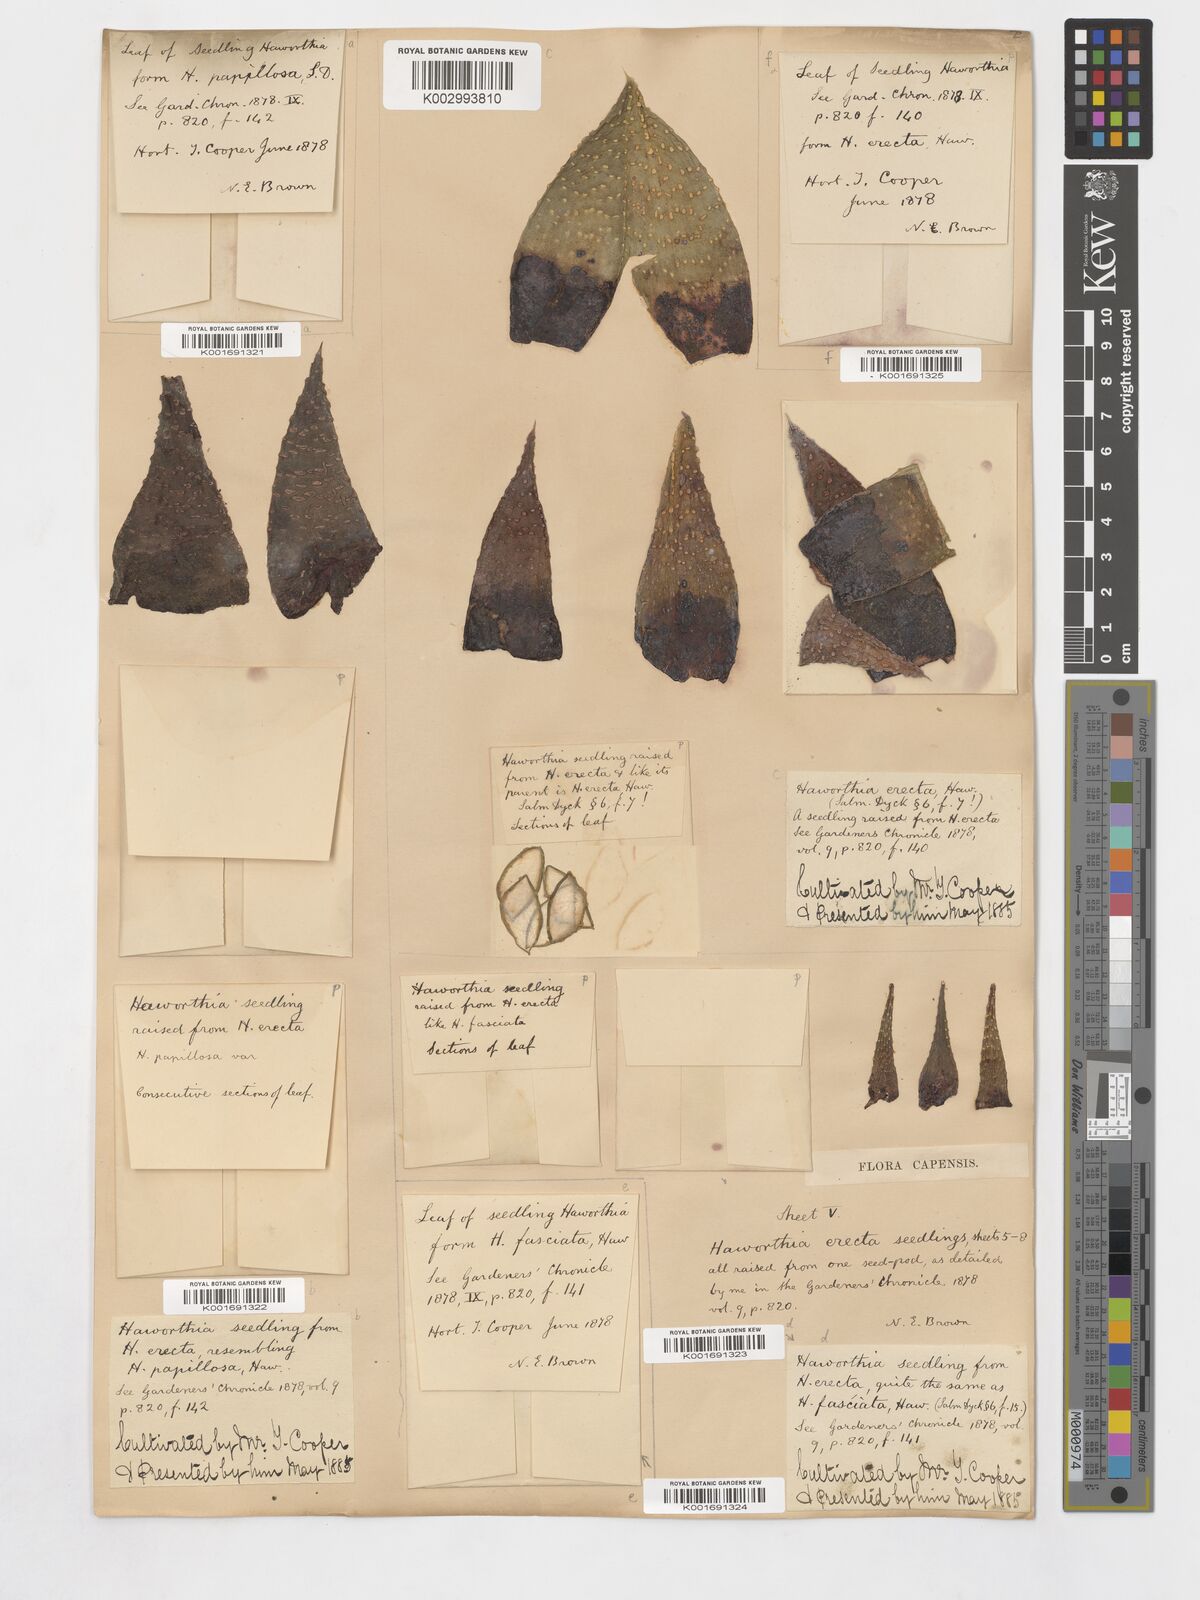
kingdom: Plantae
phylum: Tracheophyta
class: Liliopsida
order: Asparagales
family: Asphodelaceae
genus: Tulista
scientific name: Tulista minor
